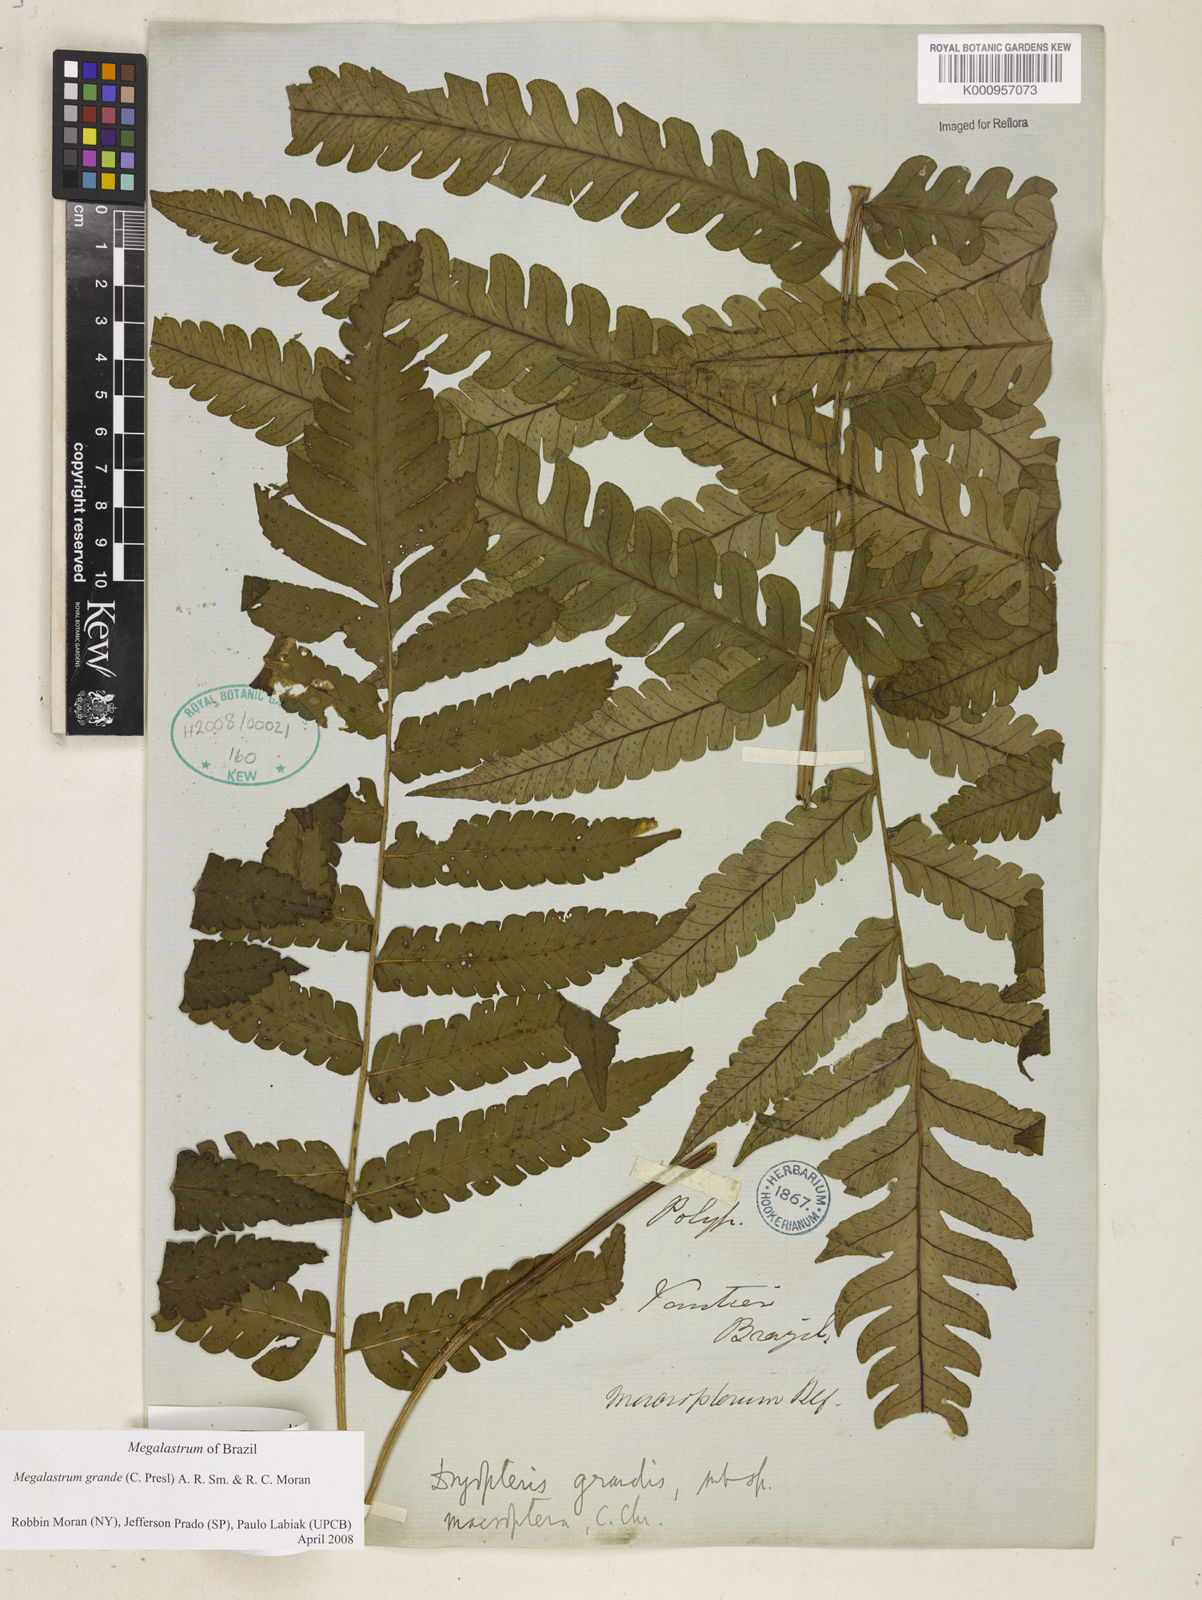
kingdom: Plantae
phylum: Tracheophyta
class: Polypodiopsida
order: Polypodiales
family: Dryopteridaceae
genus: Megalastrum
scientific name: Megalastrum grande
